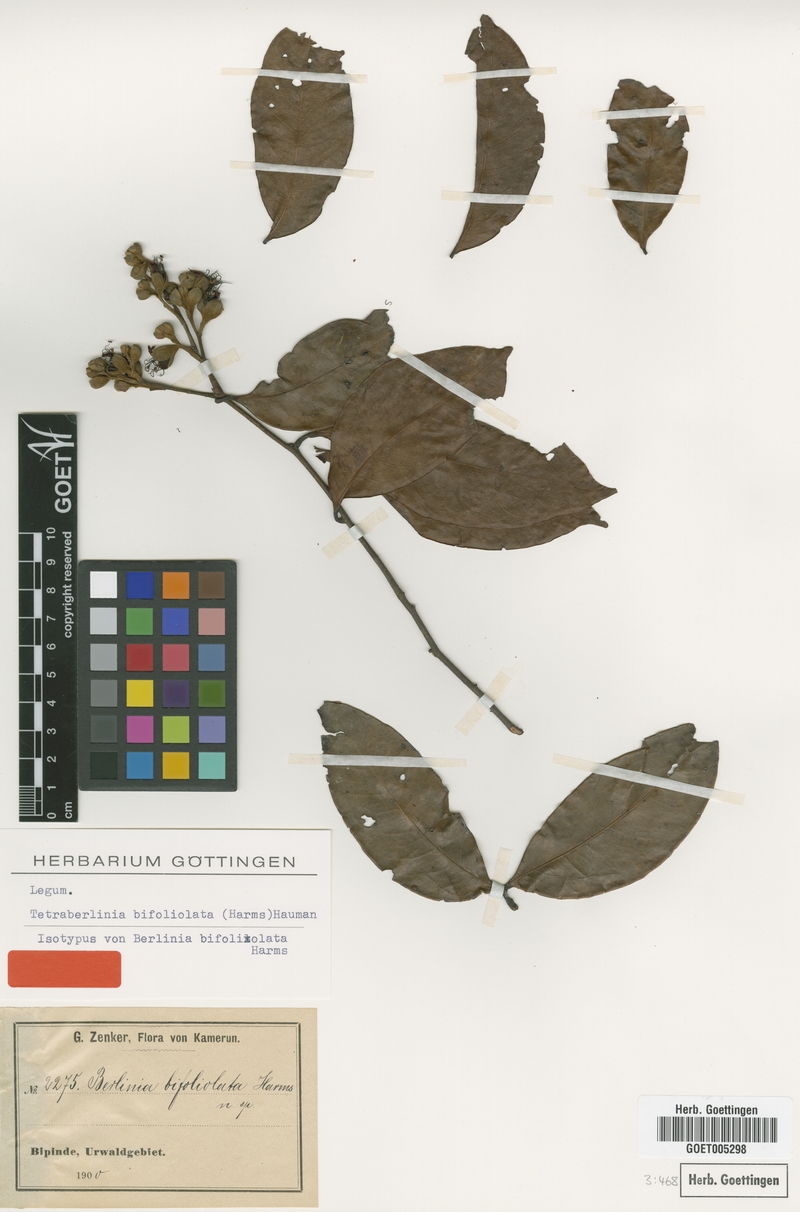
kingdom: Plantae
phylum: Tracheophyta
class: Magnoliopsida
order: Fabales
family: Fabaceae
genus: Tetraberlinia
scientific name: Tetraberlinia bifoliolata
